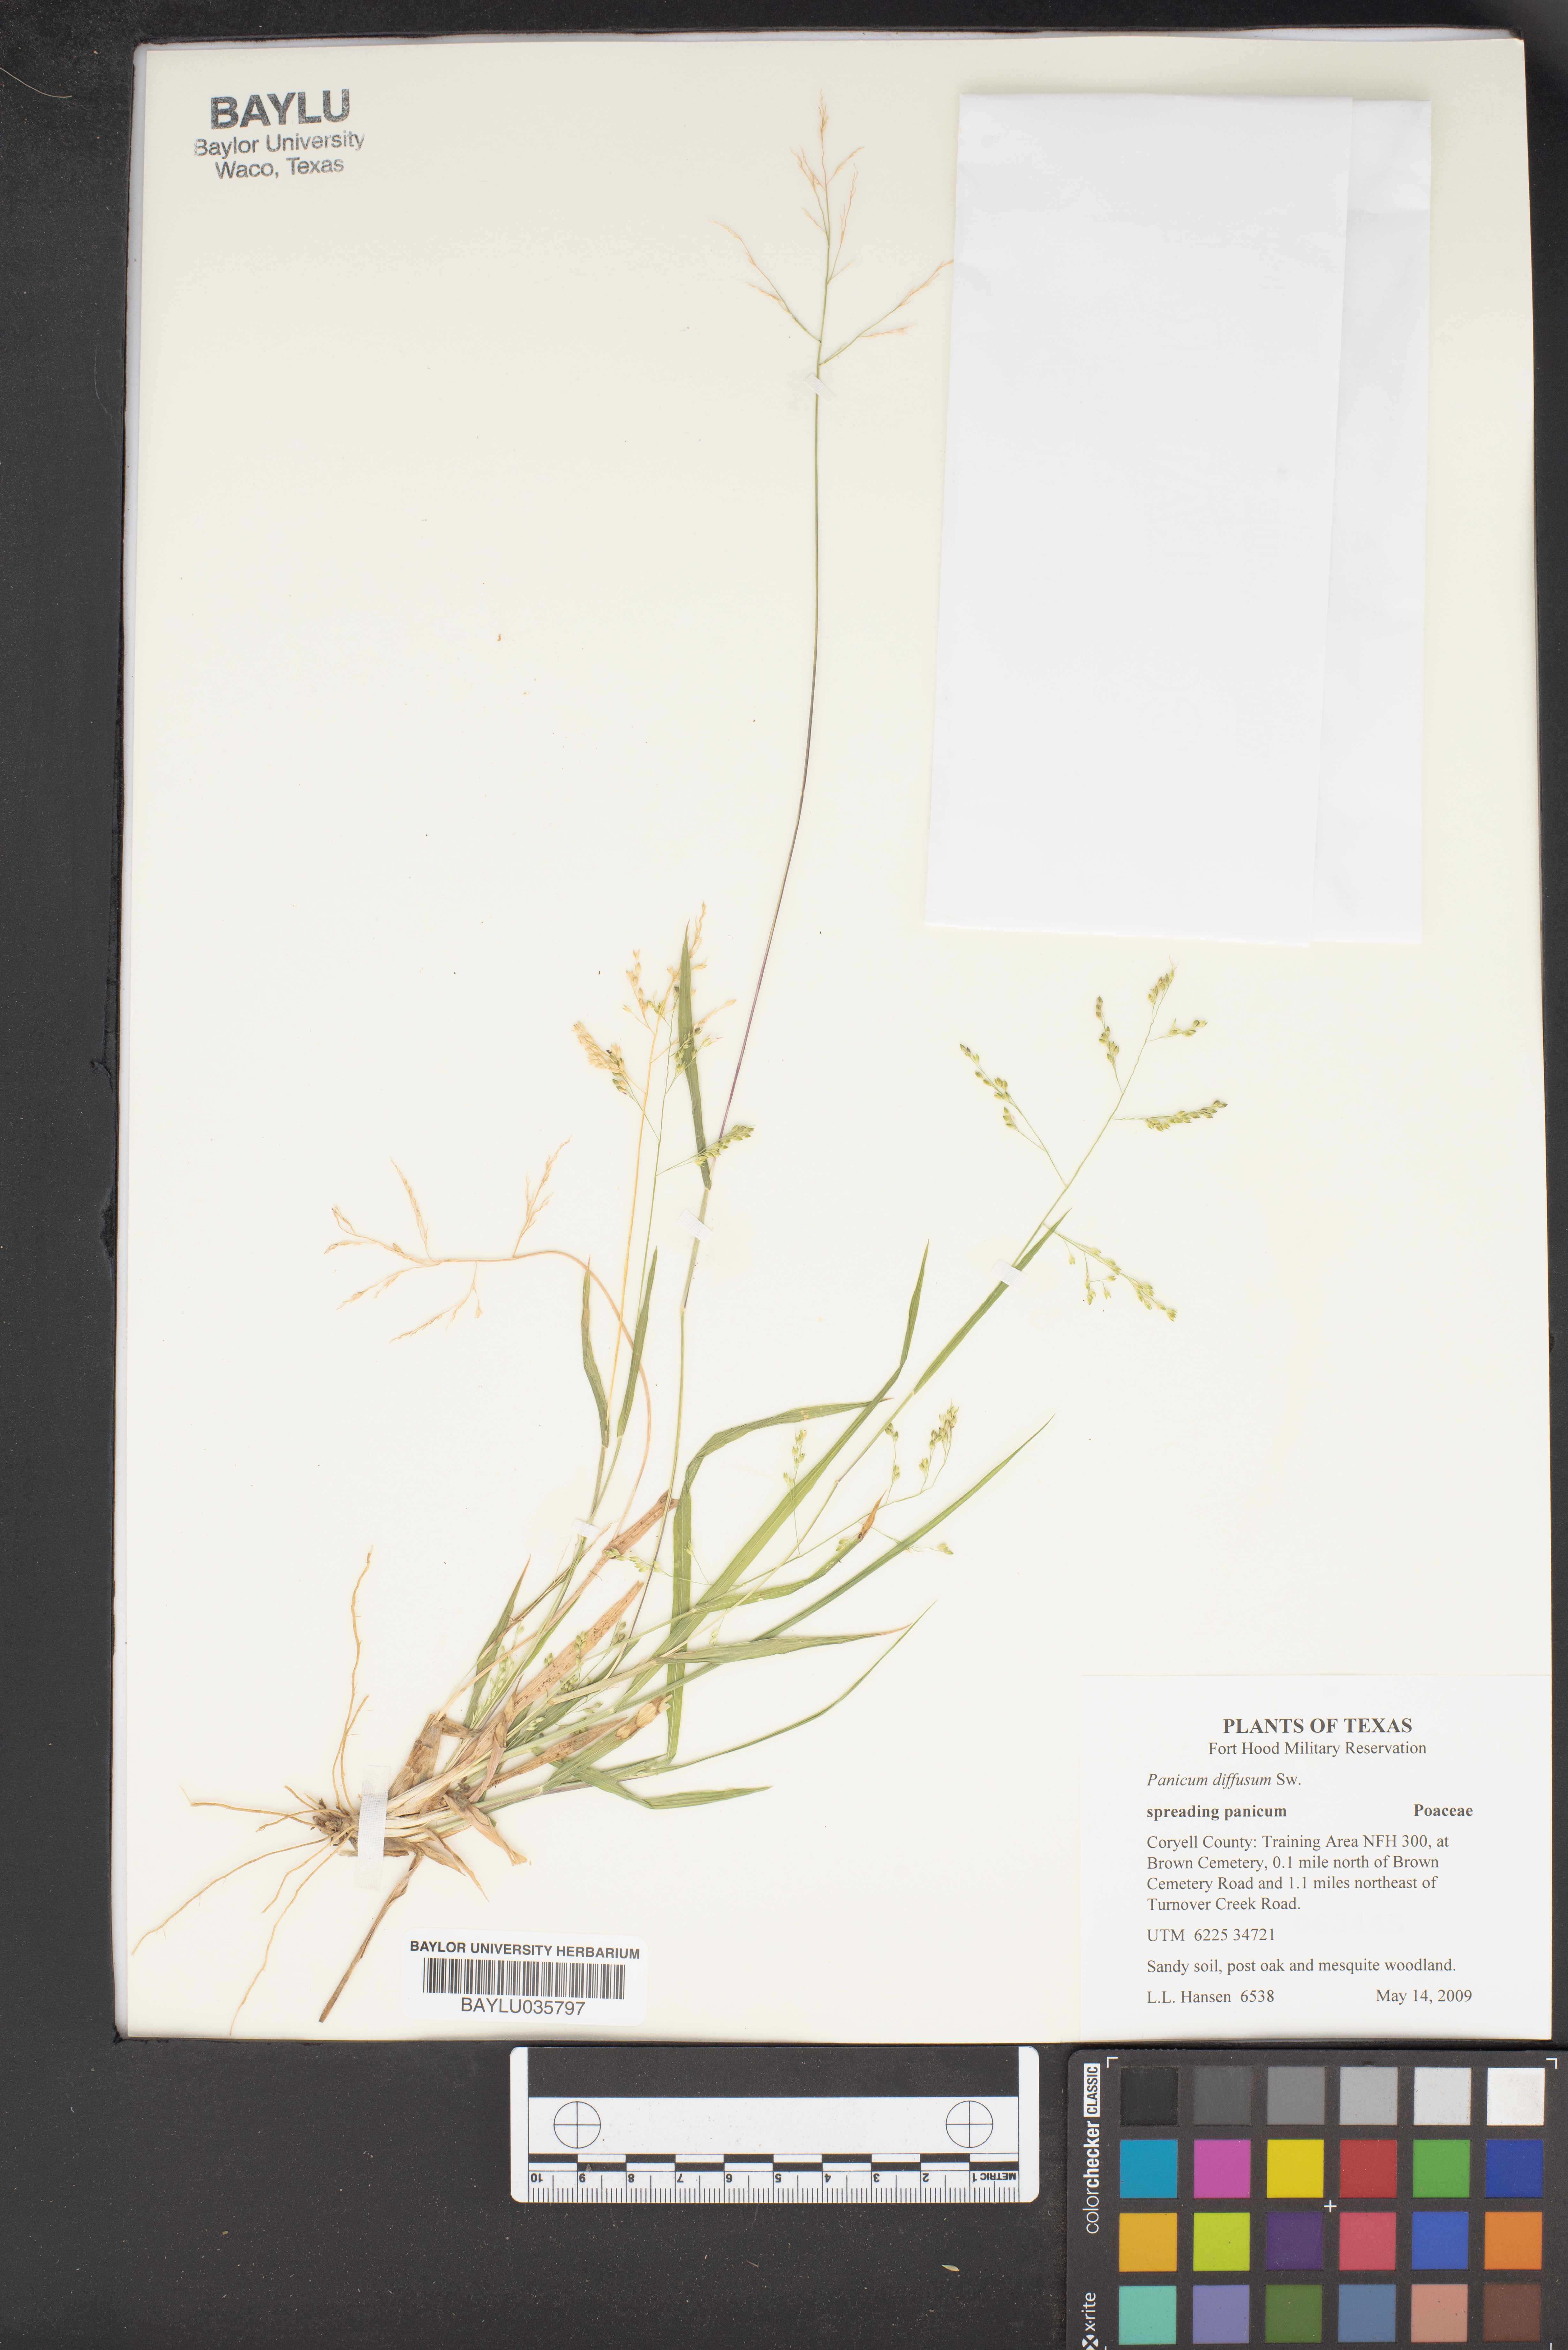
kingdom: Plantae
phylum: Tracheophyta
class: Liliopsida
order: Poales
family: Poaceae
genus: Panicum
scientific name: Panicum diffusum
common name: Spreading panicgrass
